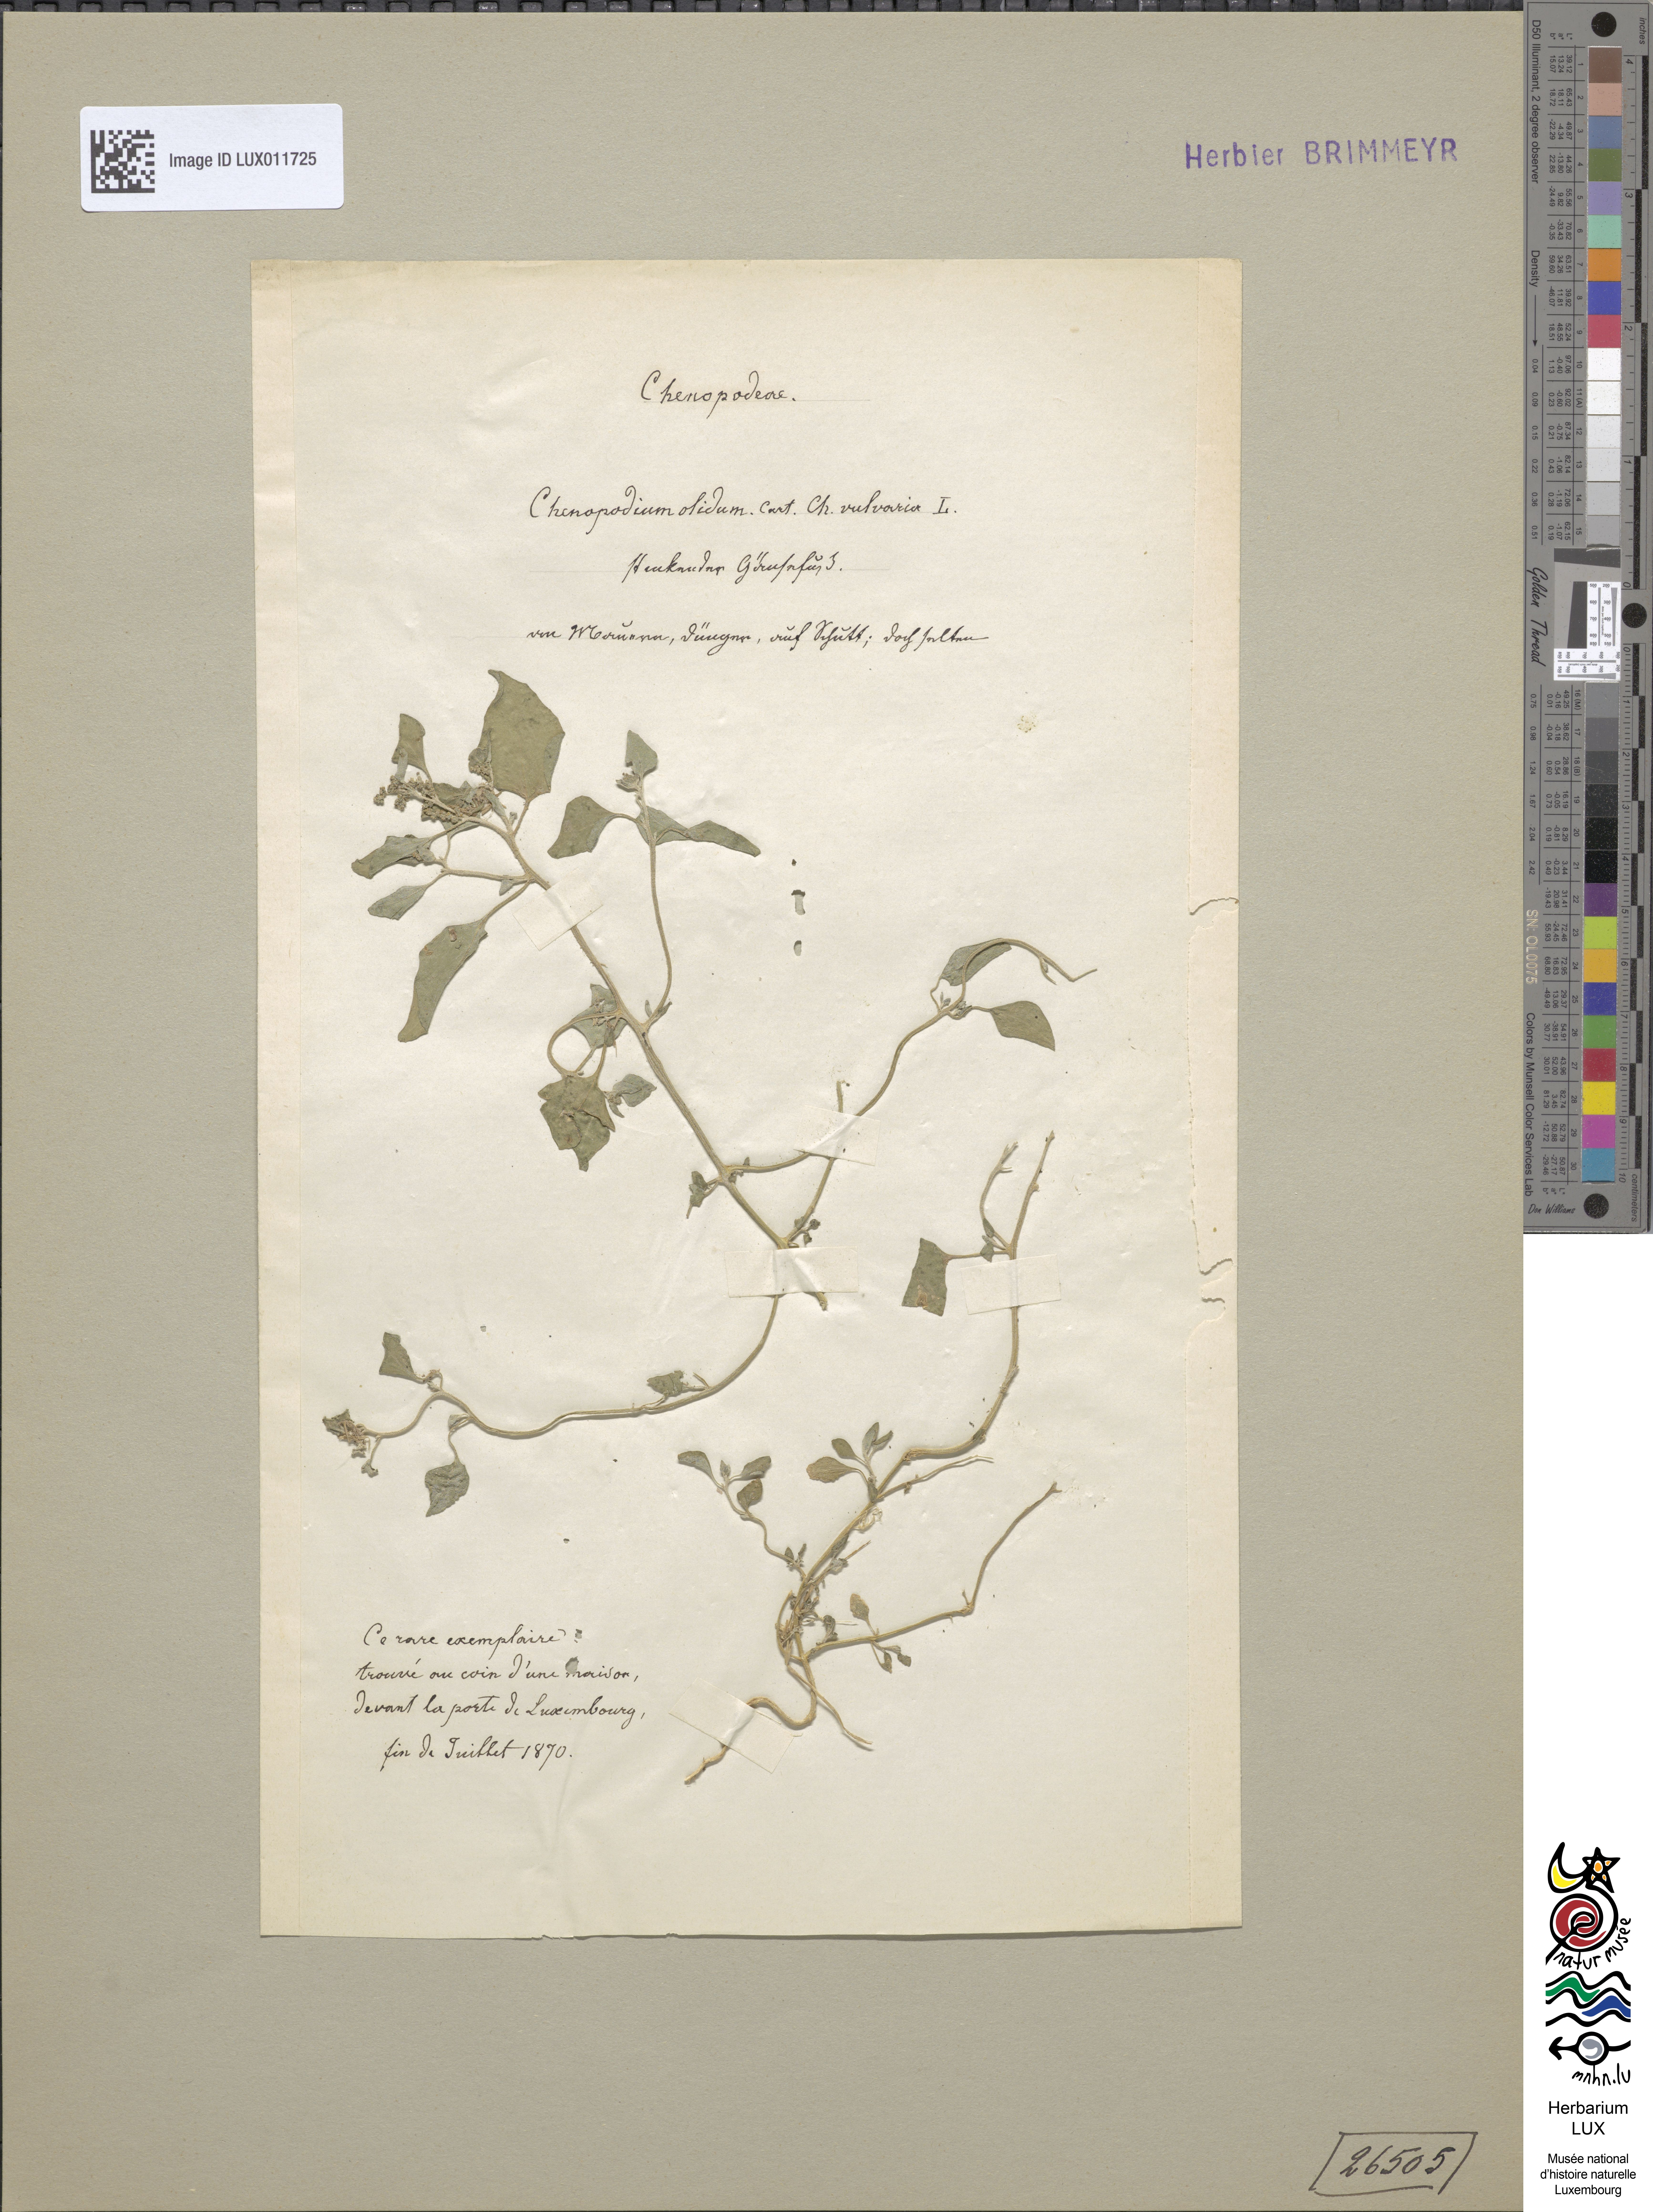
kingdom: Plantae
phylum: Tracheophyta
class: Magnoliopsida
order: Caryophyllales
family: Amaranthaceae
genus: Chenopodium
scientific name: Chenopodium vulvaria
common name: Stinking goosefoot
